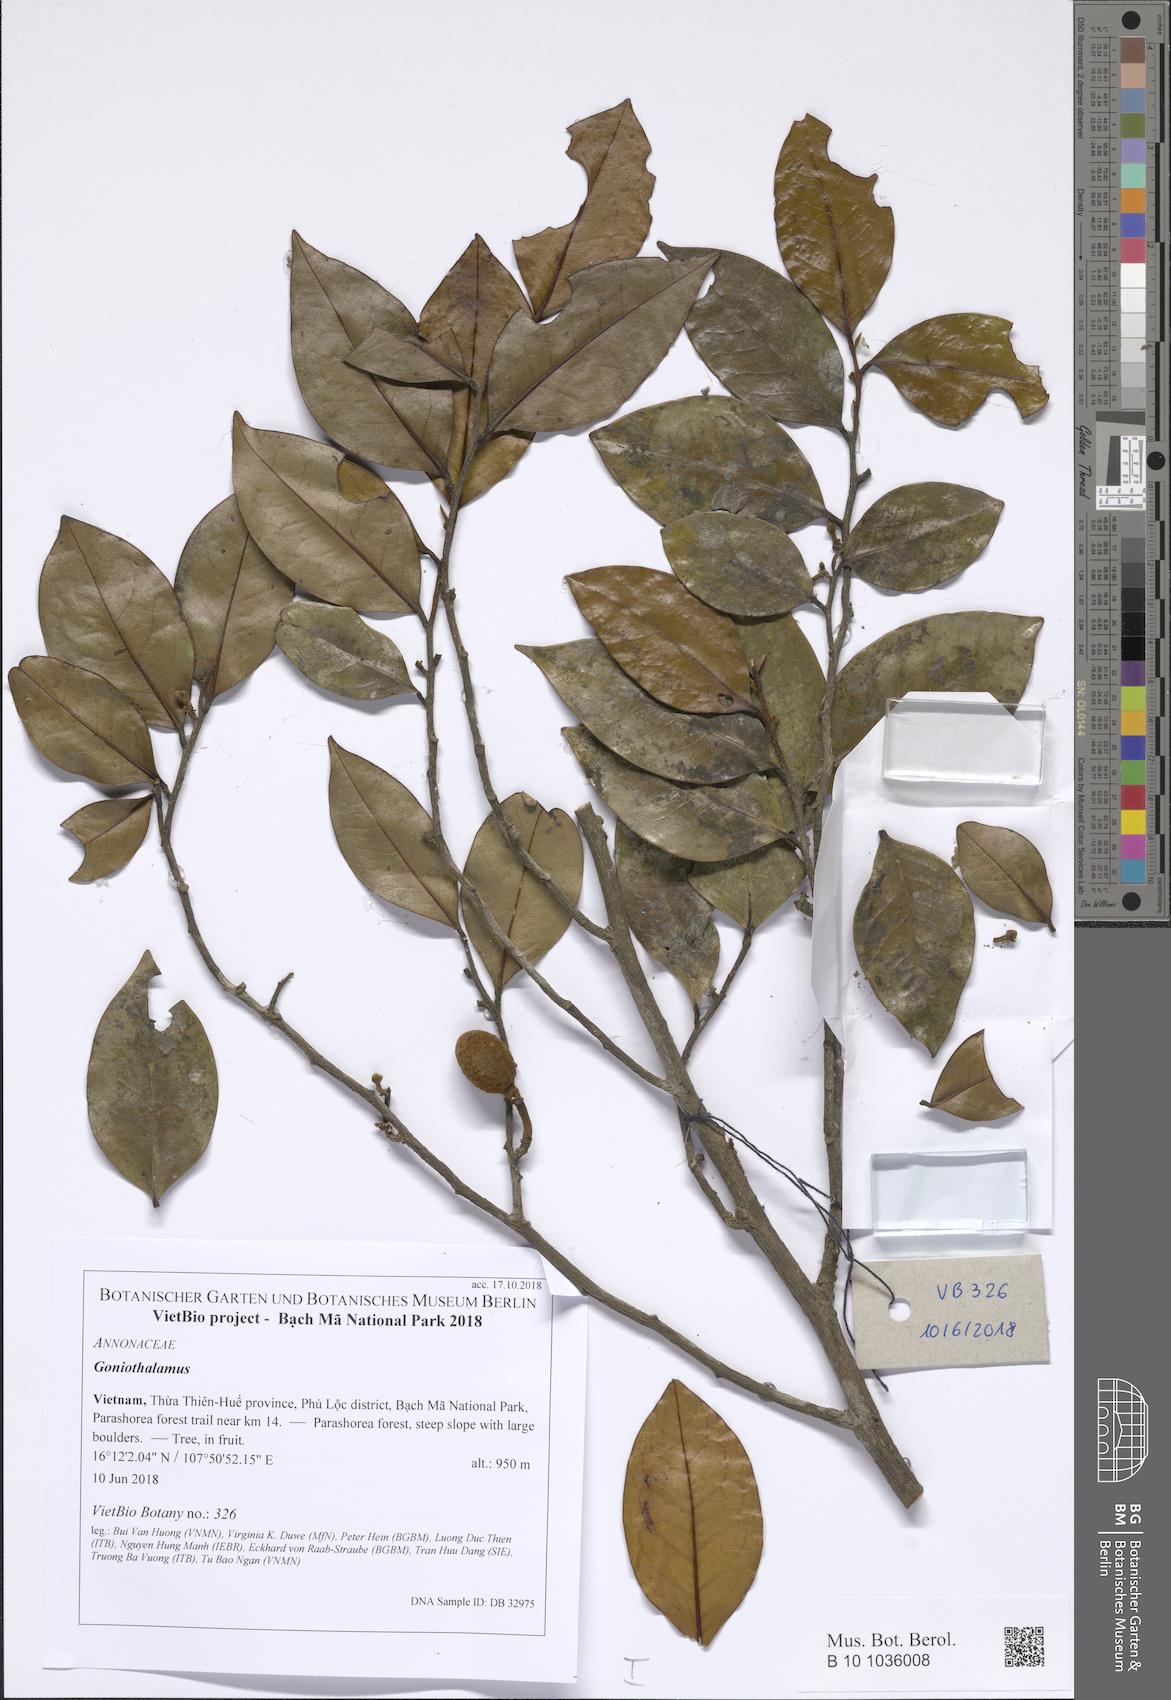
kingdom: Plantae
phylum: Tracheophyta
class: Magnoliopsida
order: Magnoliales
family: Annonaceae
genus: Mitrephora
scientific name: Mitrephora calcarea
